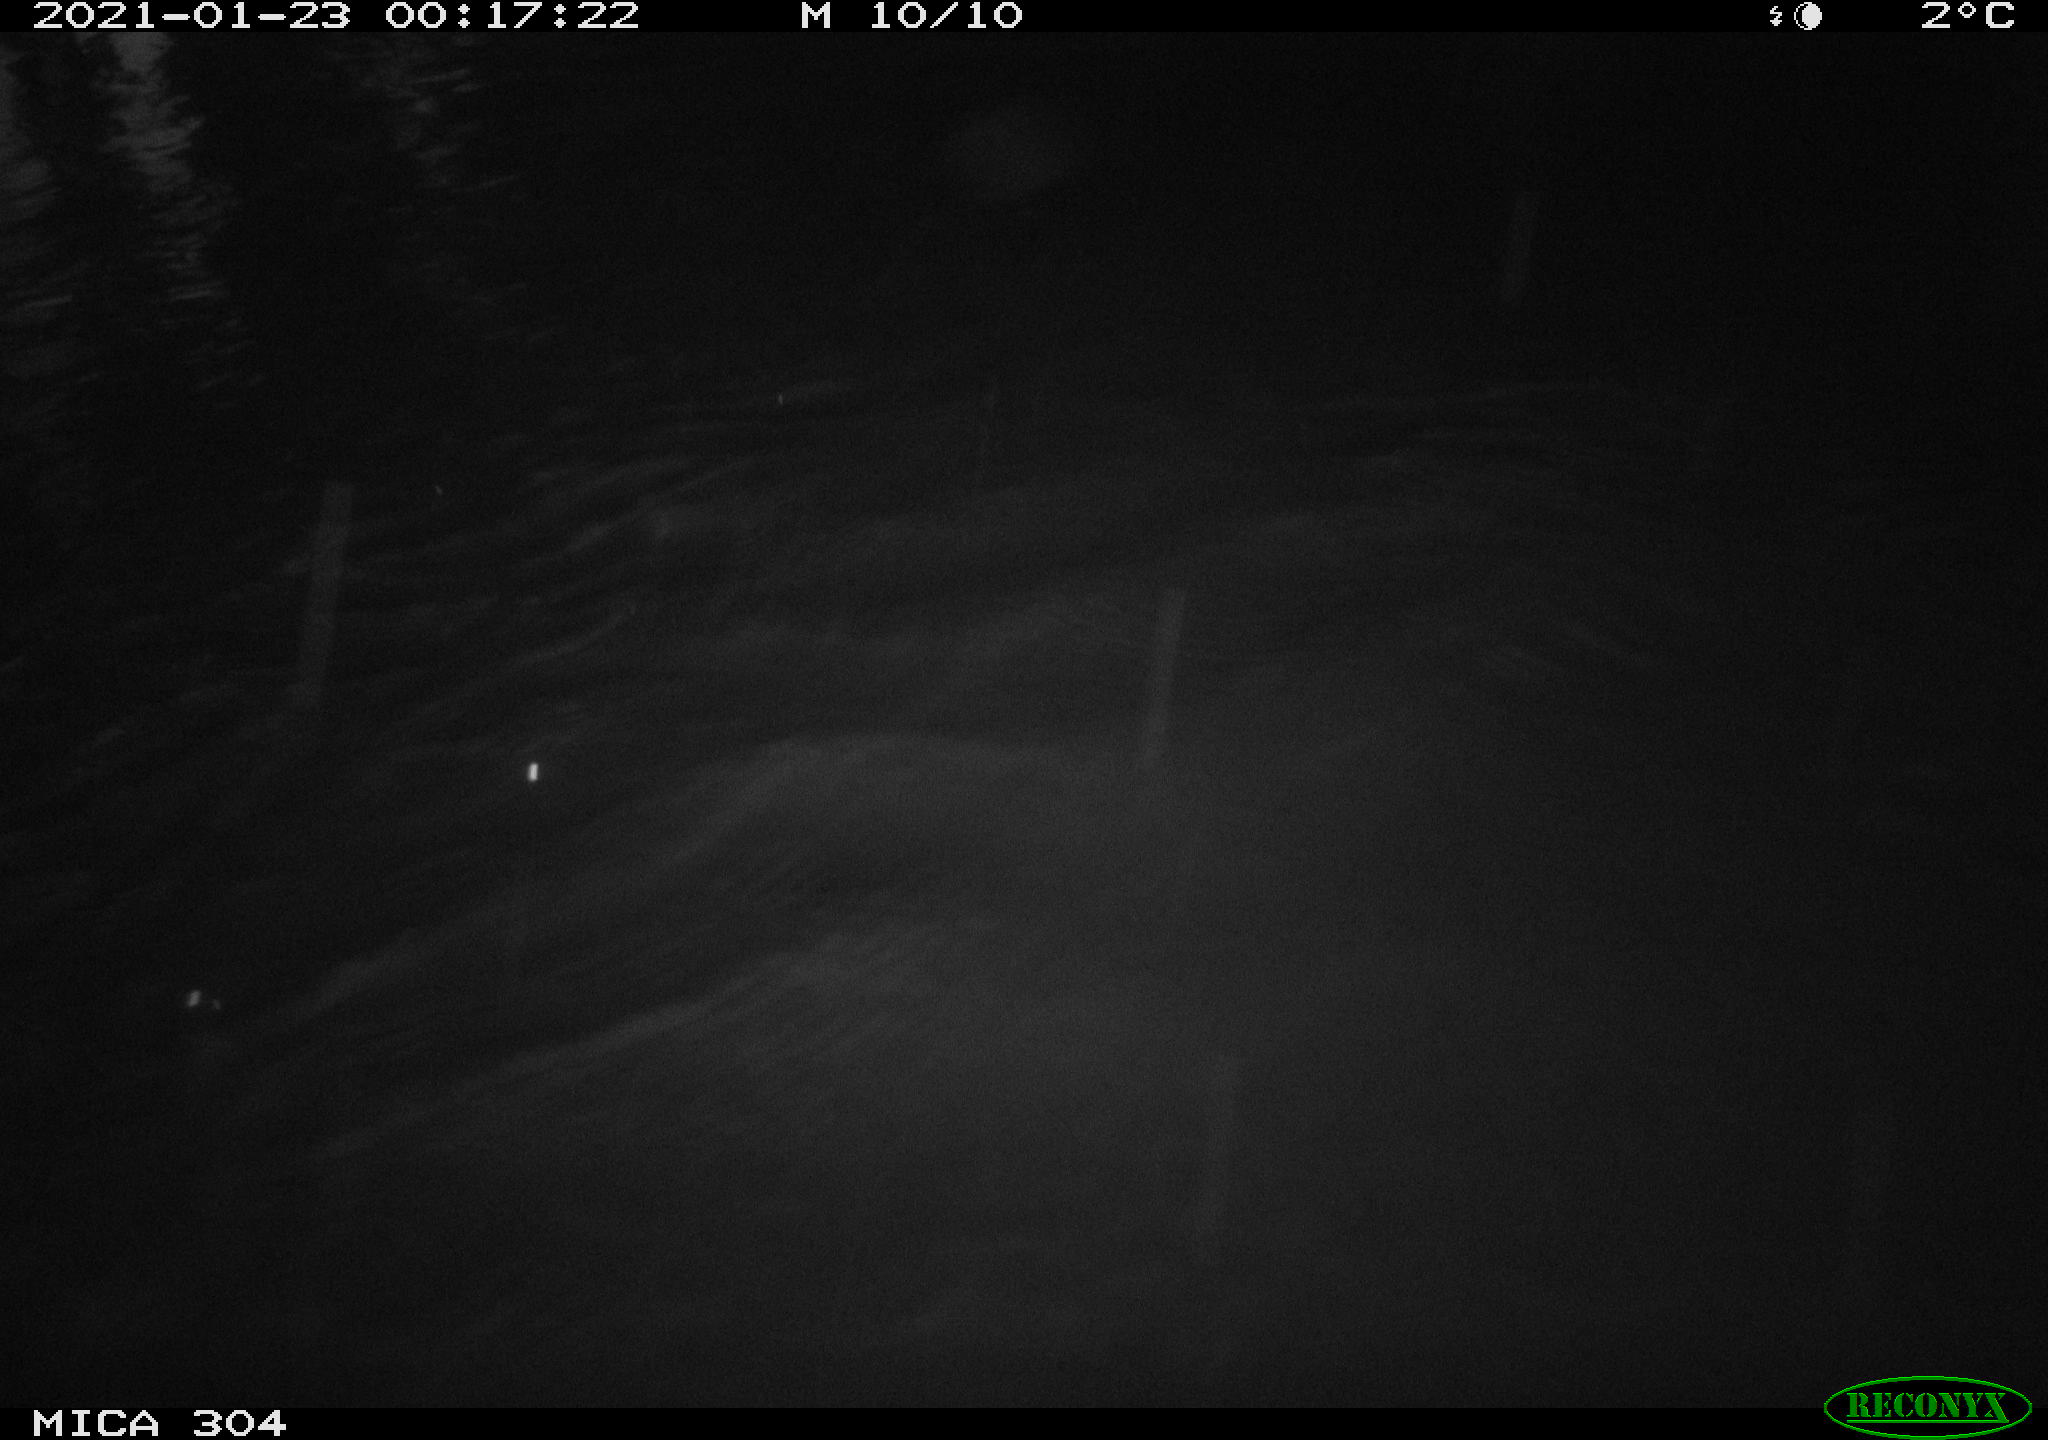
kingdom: Animalia
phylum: Chordata
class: Mammalia
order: Rodentia
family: Cricetidae
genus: Ondatra
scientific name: Ondatra zibethicus
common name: Muskrat
